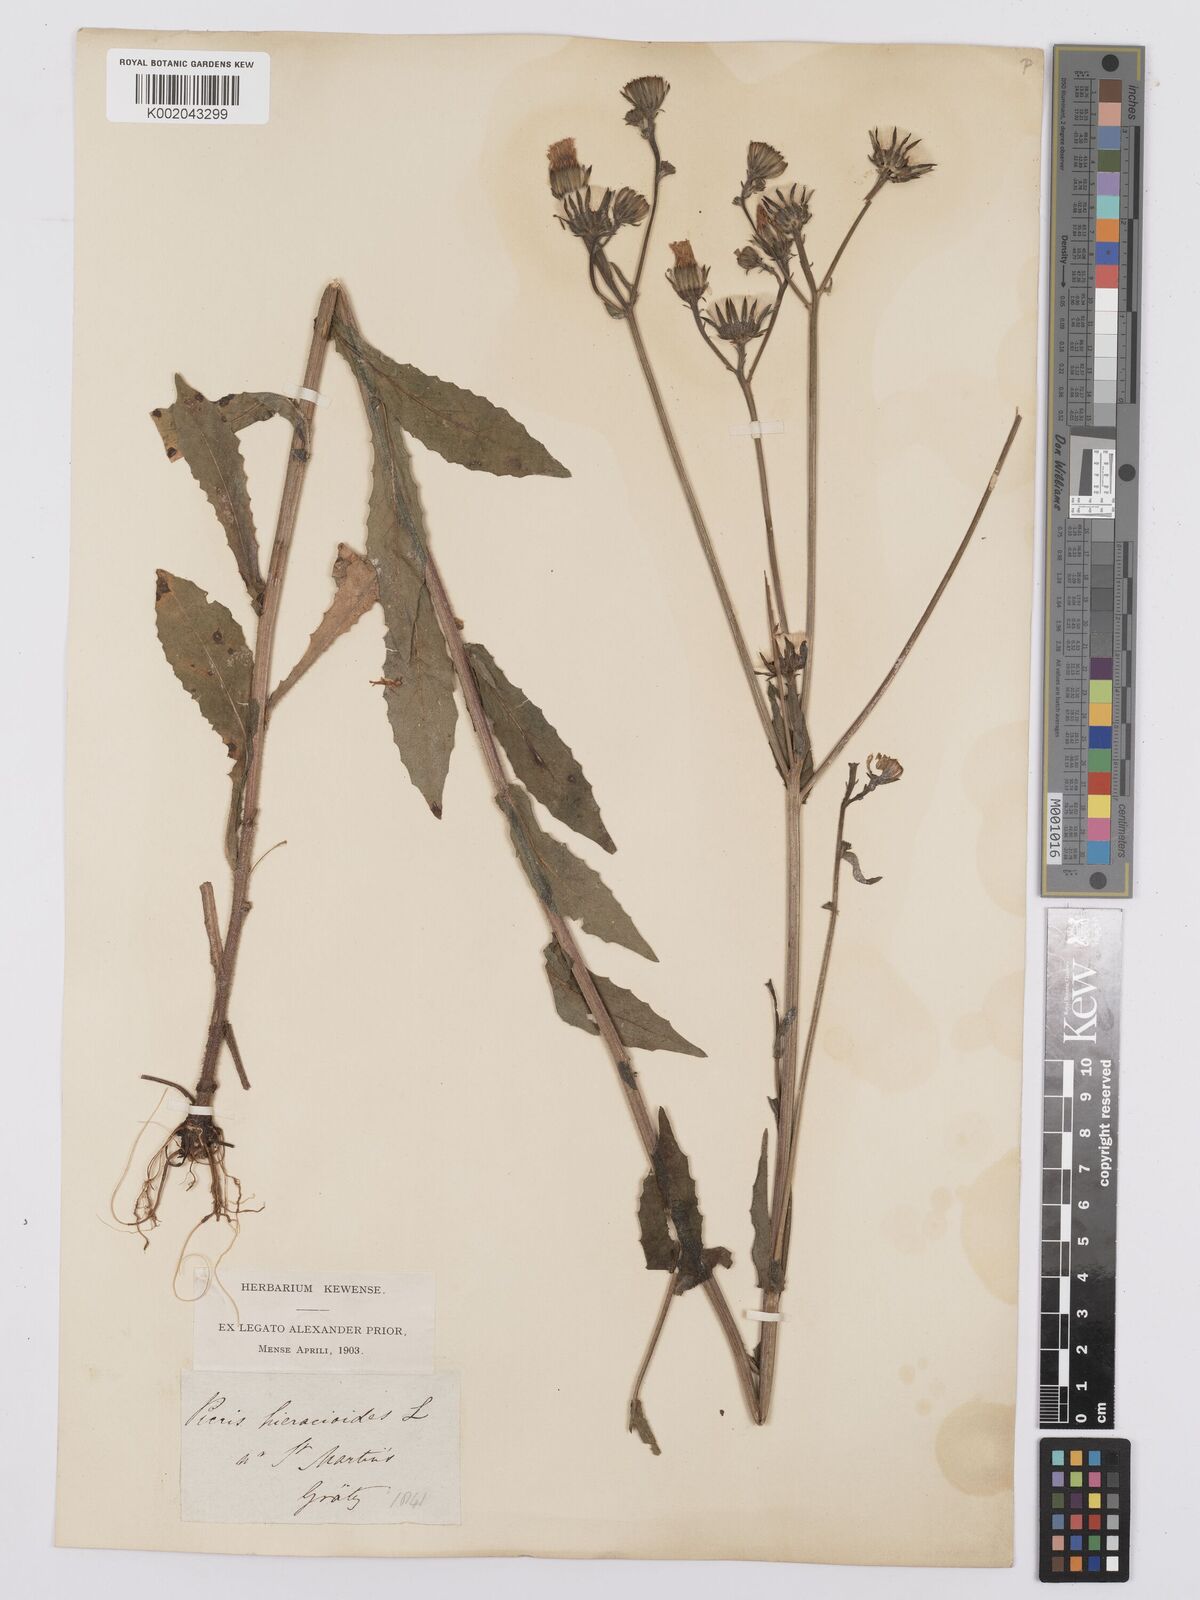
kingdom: Plantae
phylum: Tracheophyta
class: Magnoliopsida
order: Asterales
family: Asteraceae
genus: Picris
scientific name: Picris hieracioides
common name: Hawkweed oxtongue
